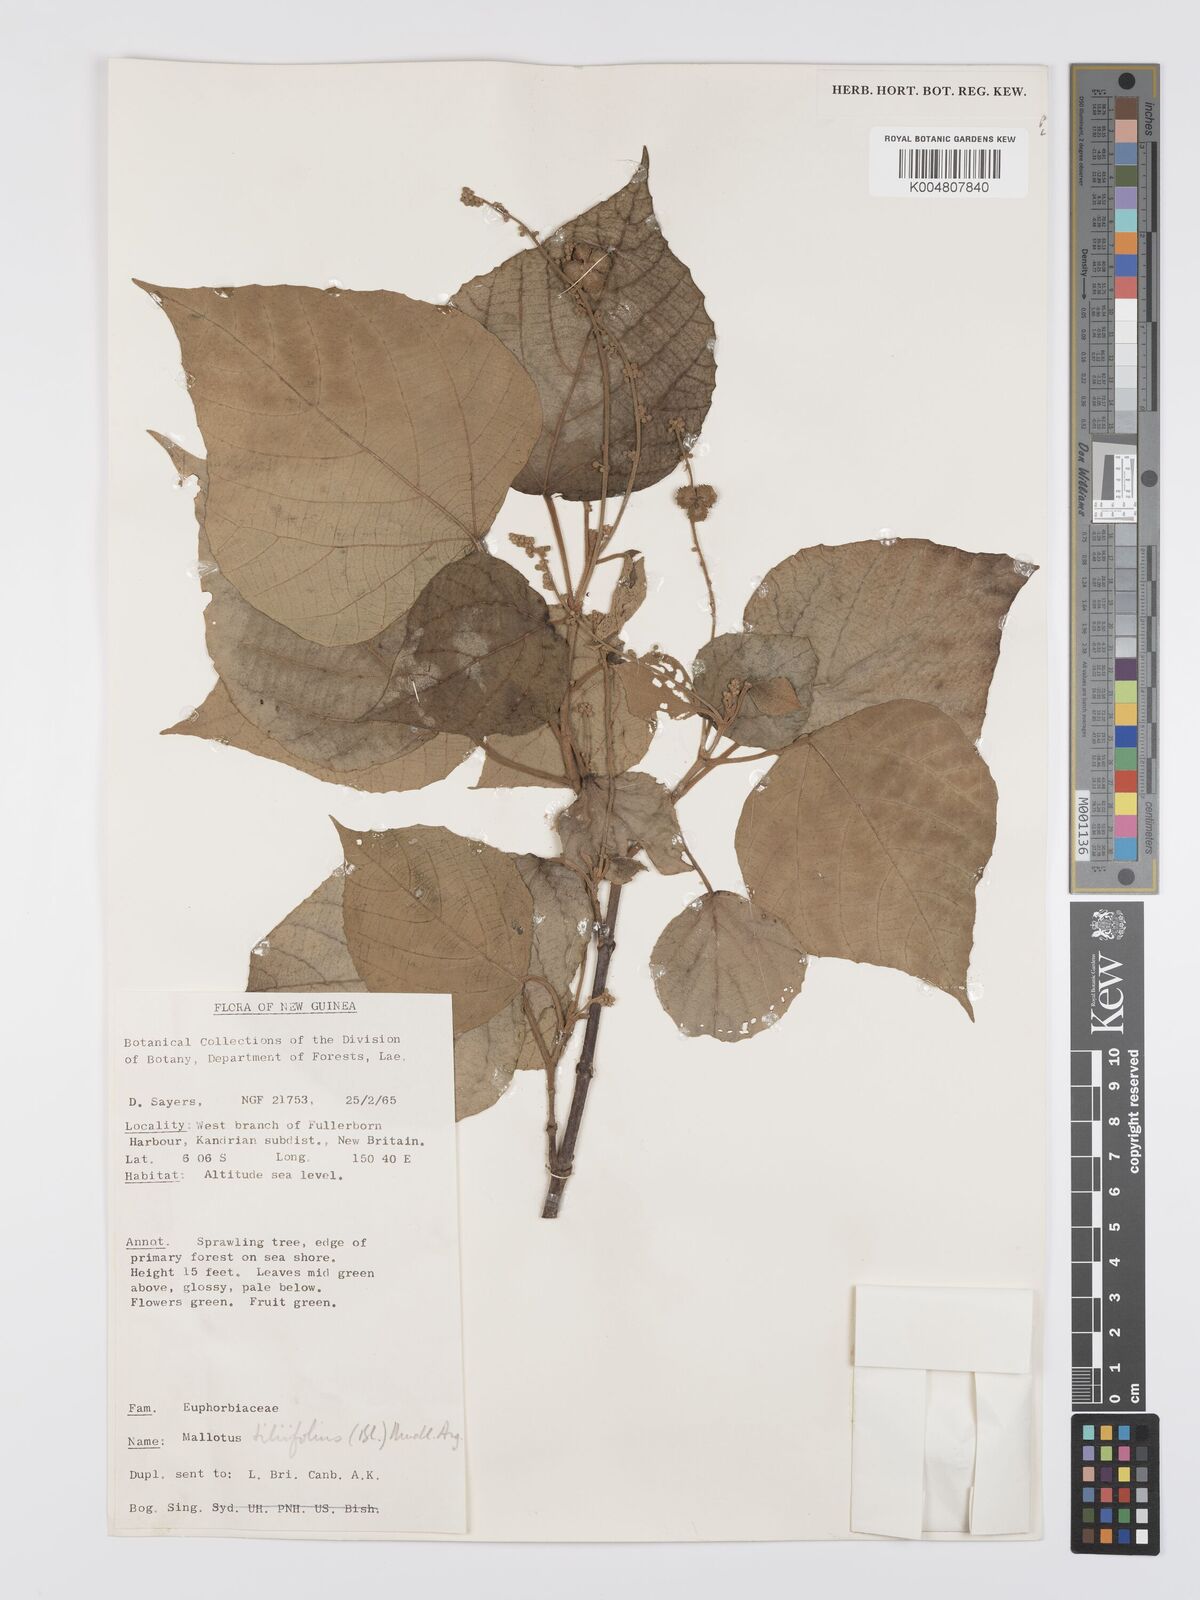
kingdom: Plantae
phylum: Tracheophyta
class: Magnoliopsida
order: Malpighiales
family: Euphorbiaceae
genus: Mallotus
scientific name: Mallotus tiliifolius
